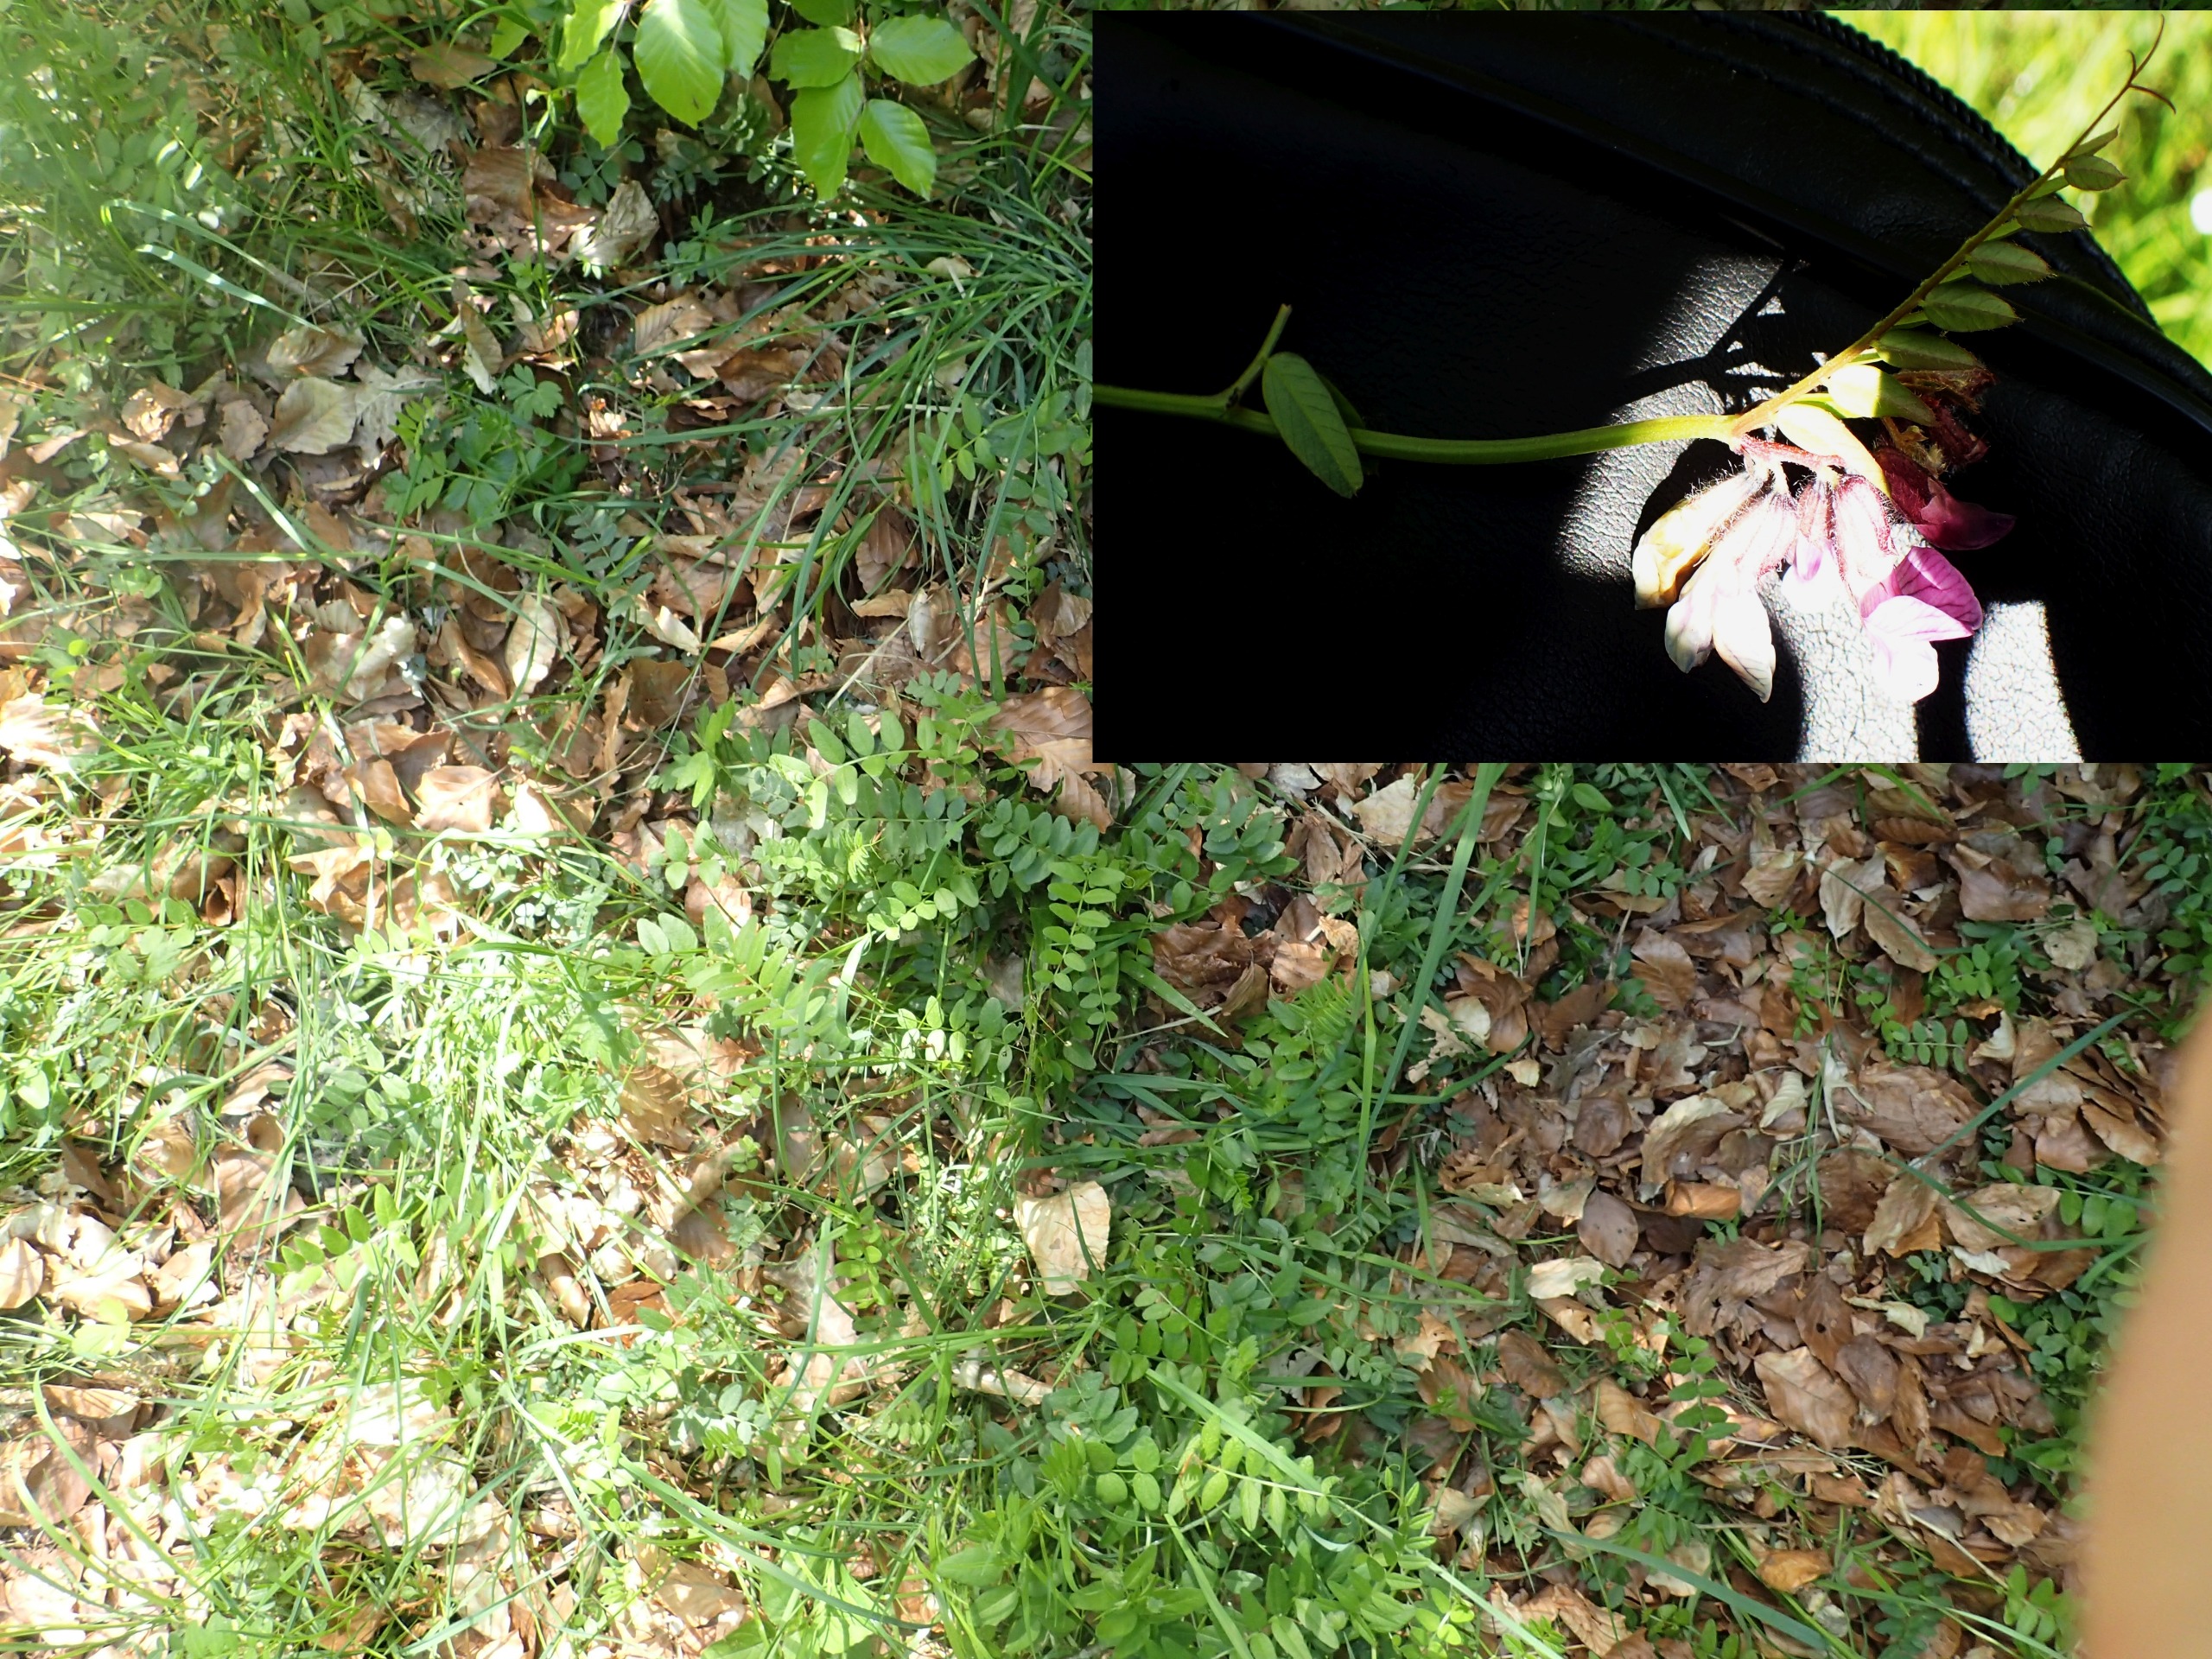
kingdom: Plantae
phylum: Tracheophyta
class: Magnoliopsida
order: Fabales
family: Fabaceae
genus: Vicia
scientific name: Vicia sepium
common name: Gærde-vikke
